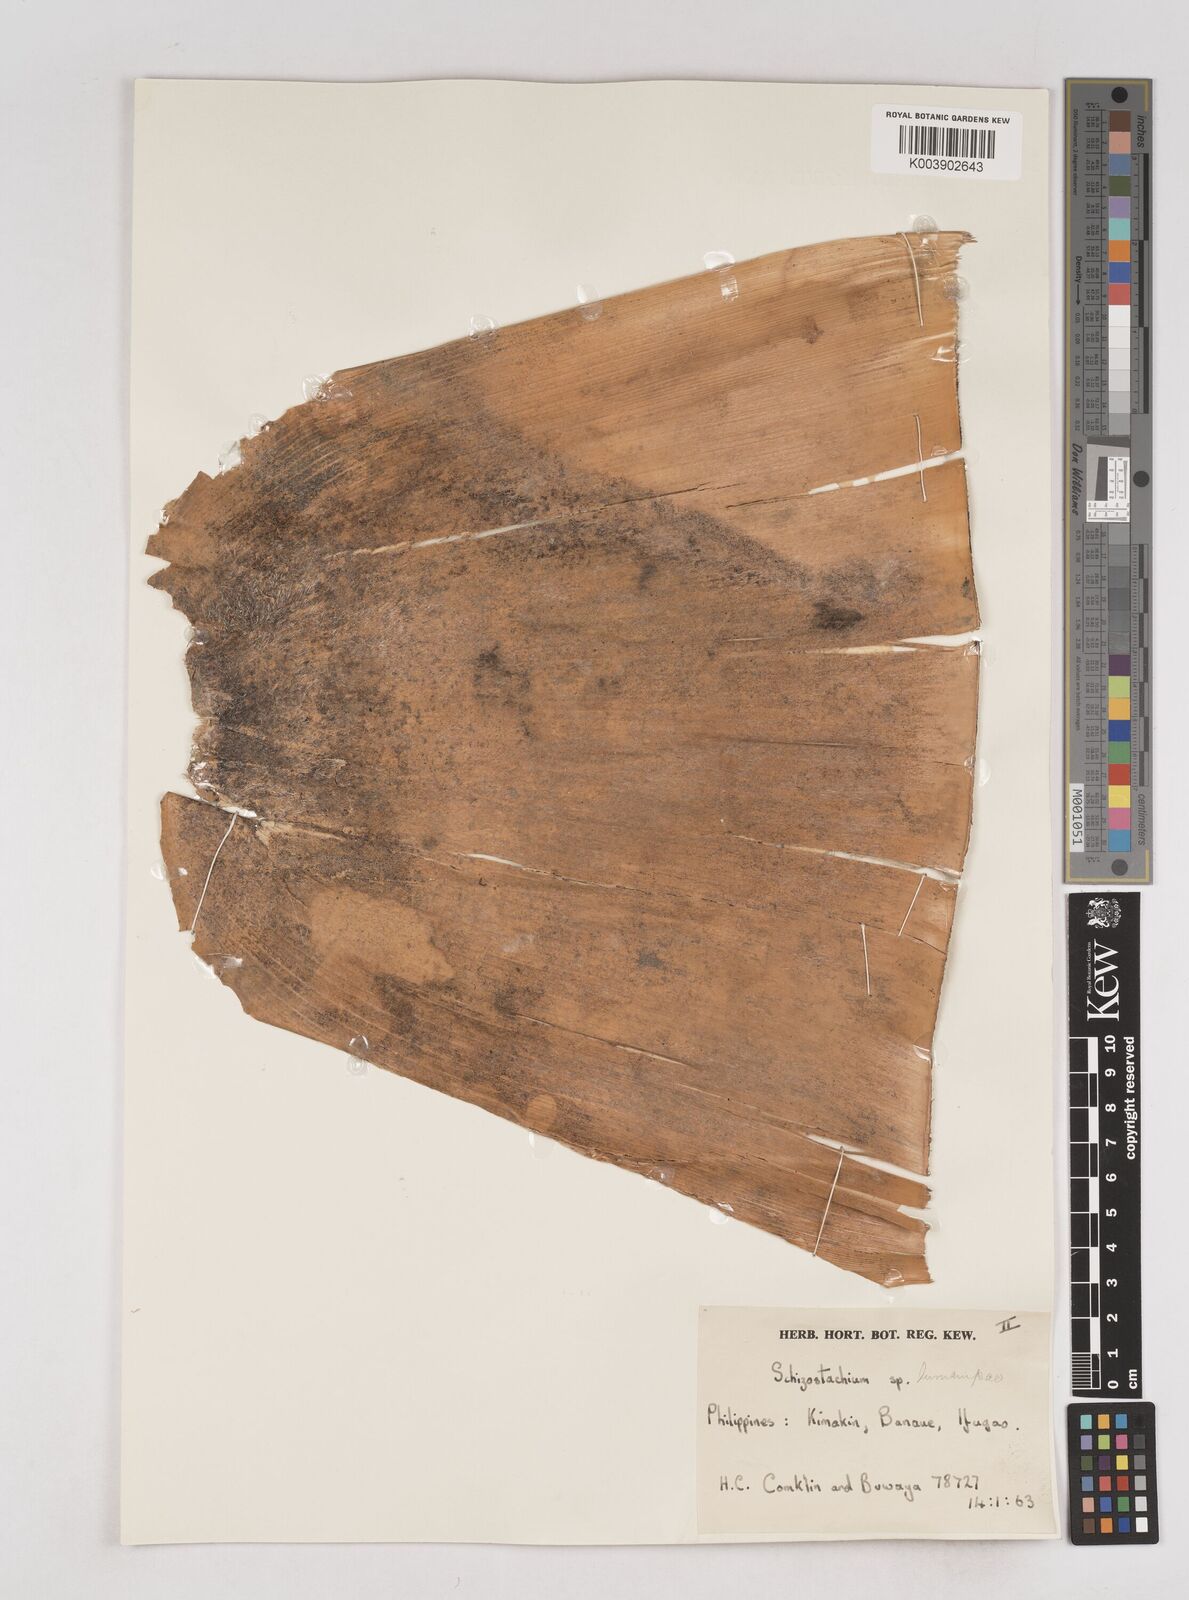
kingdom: Plantae
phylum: Tracheophyta
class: Liliopsida
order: Poales
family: Poaceae
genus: Schizostachyum
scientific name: Schizostachyum
